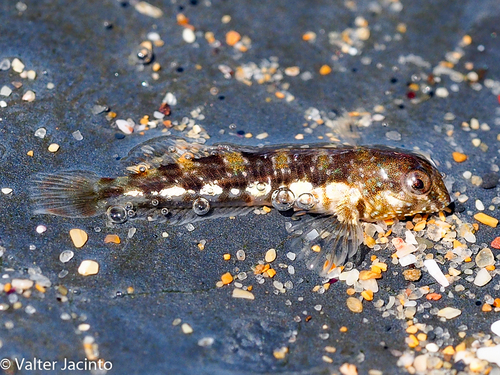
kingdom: Animalia
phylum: Chordata
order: Perciformes
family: Blenniidae
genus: Coryphoblennius
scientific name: Coryphoblennius galerita
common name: Montagu's blenny
